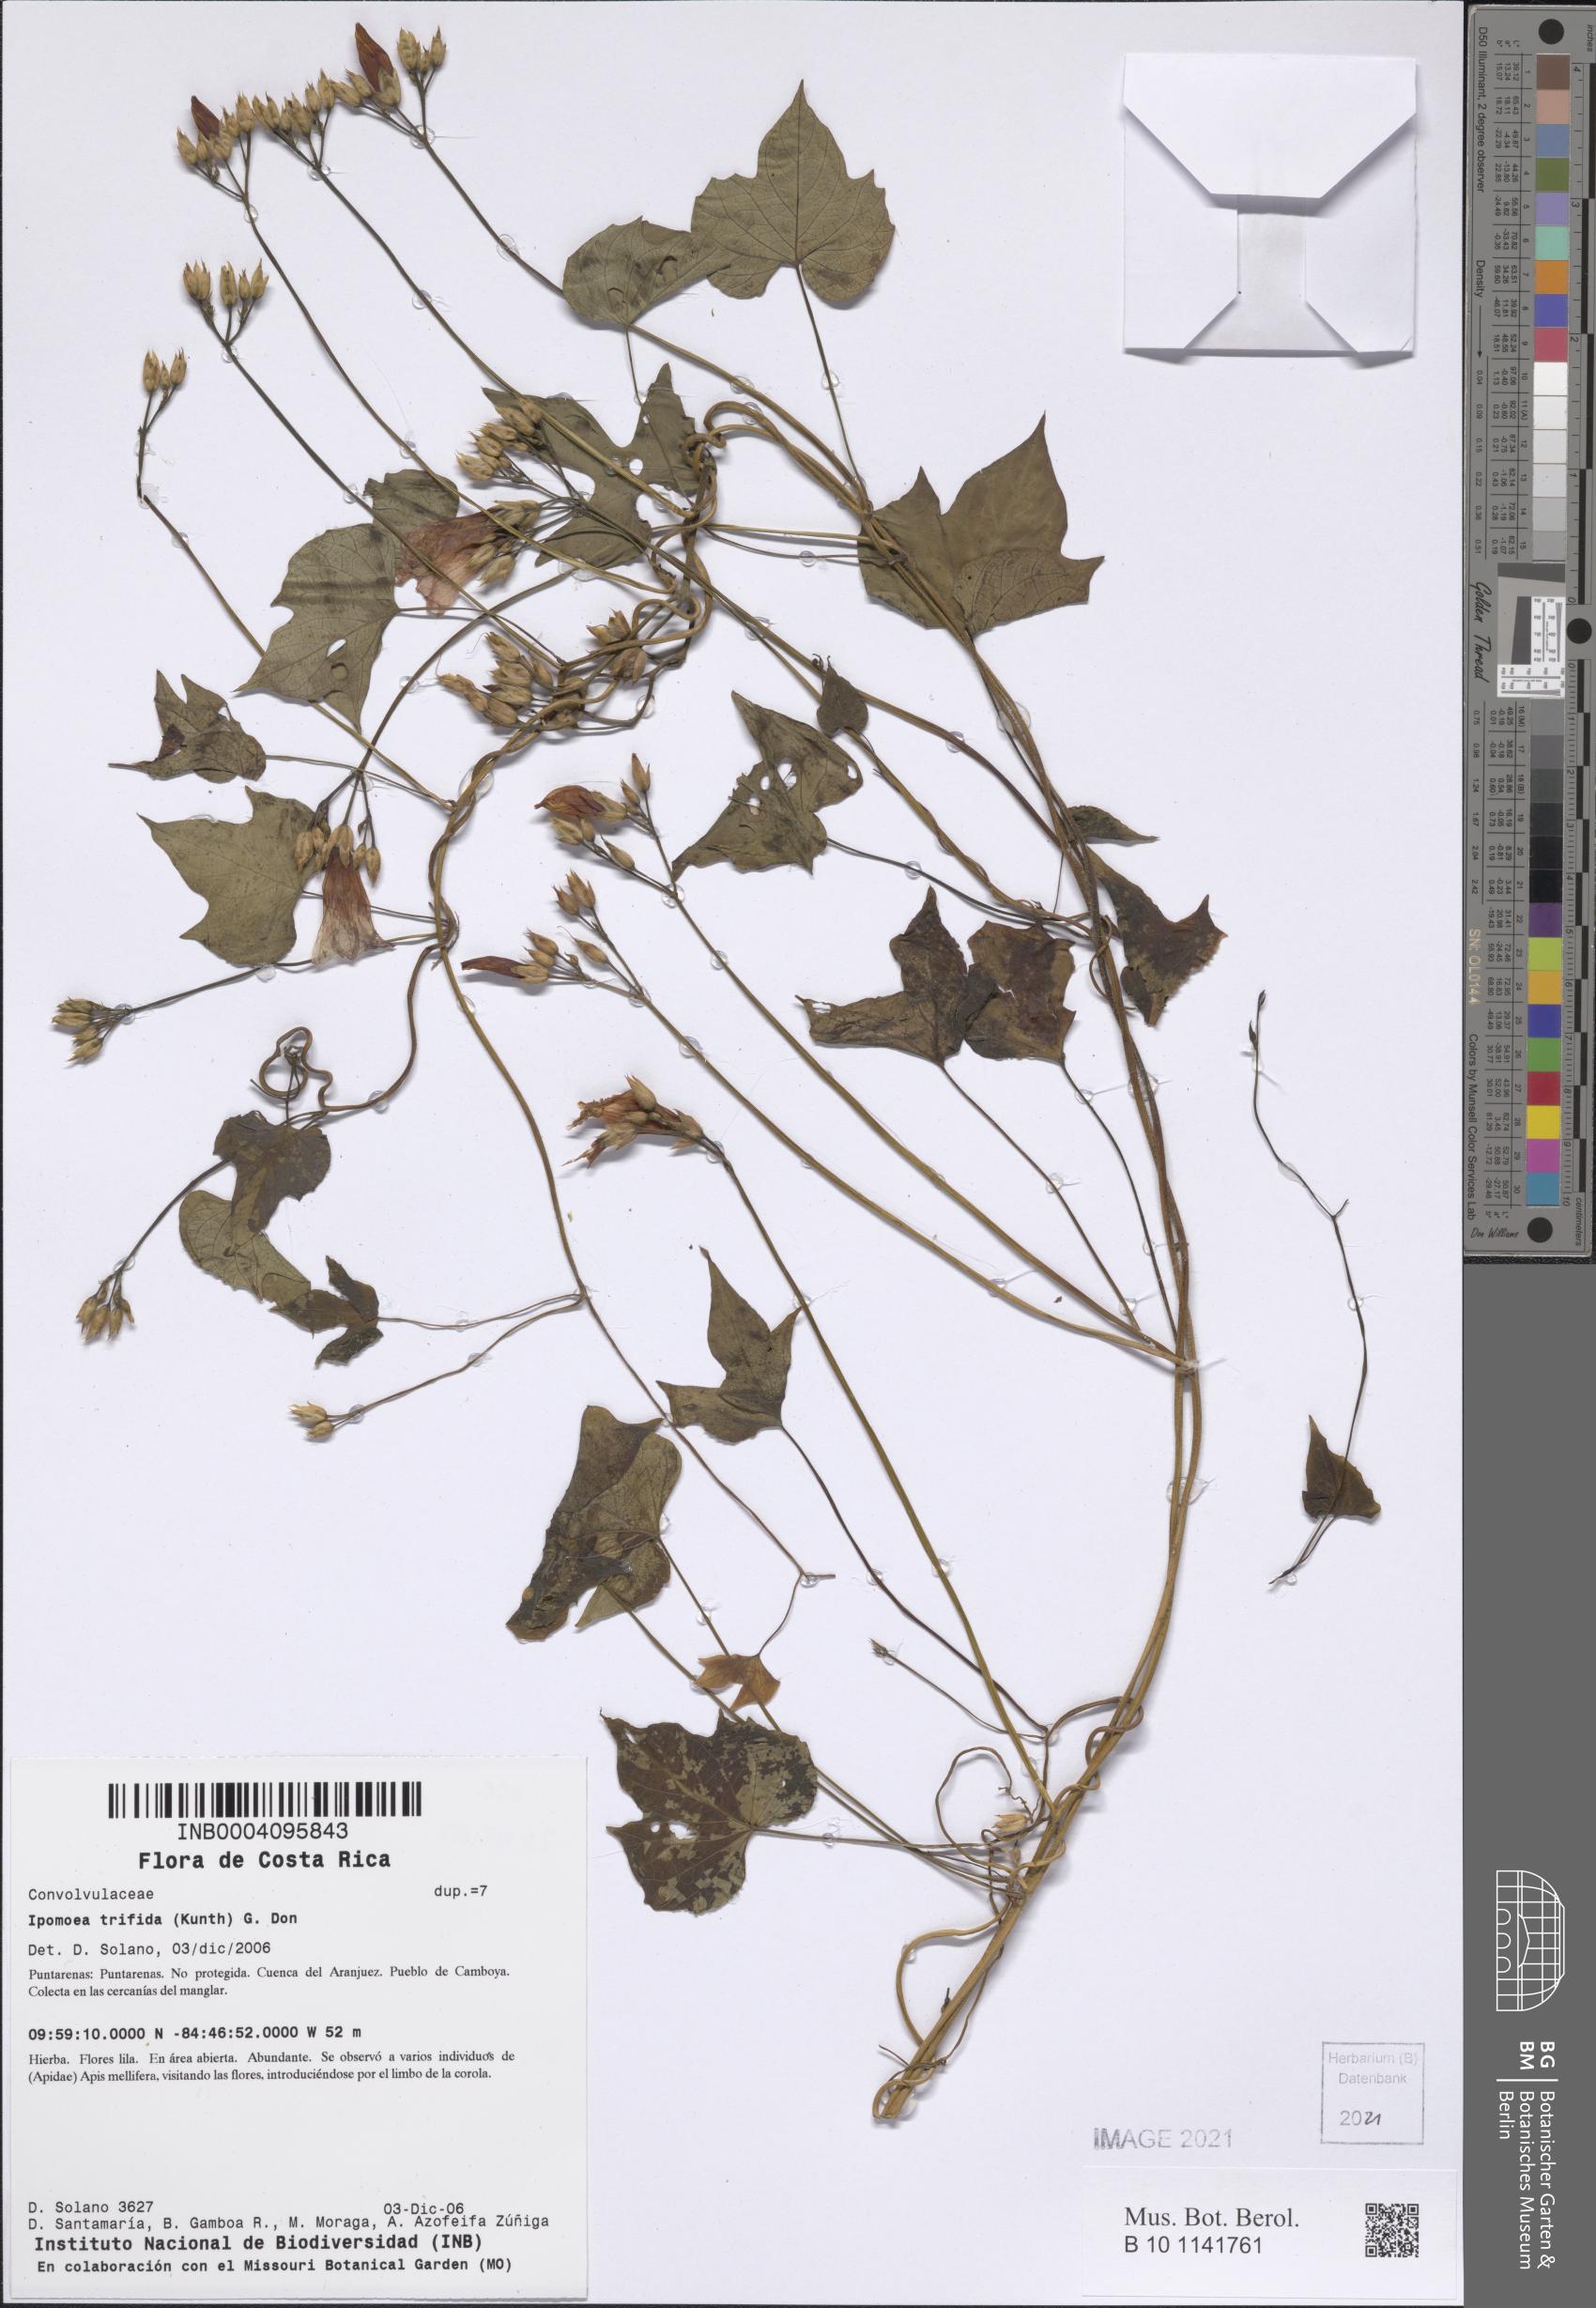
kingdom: Plantae
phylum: Tracheophyta
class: Magnoliopsida
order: Solanales
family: Convolvulaceae
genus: Ipomoea
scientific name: Ipomoea trifida
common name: Cotton morningglory
